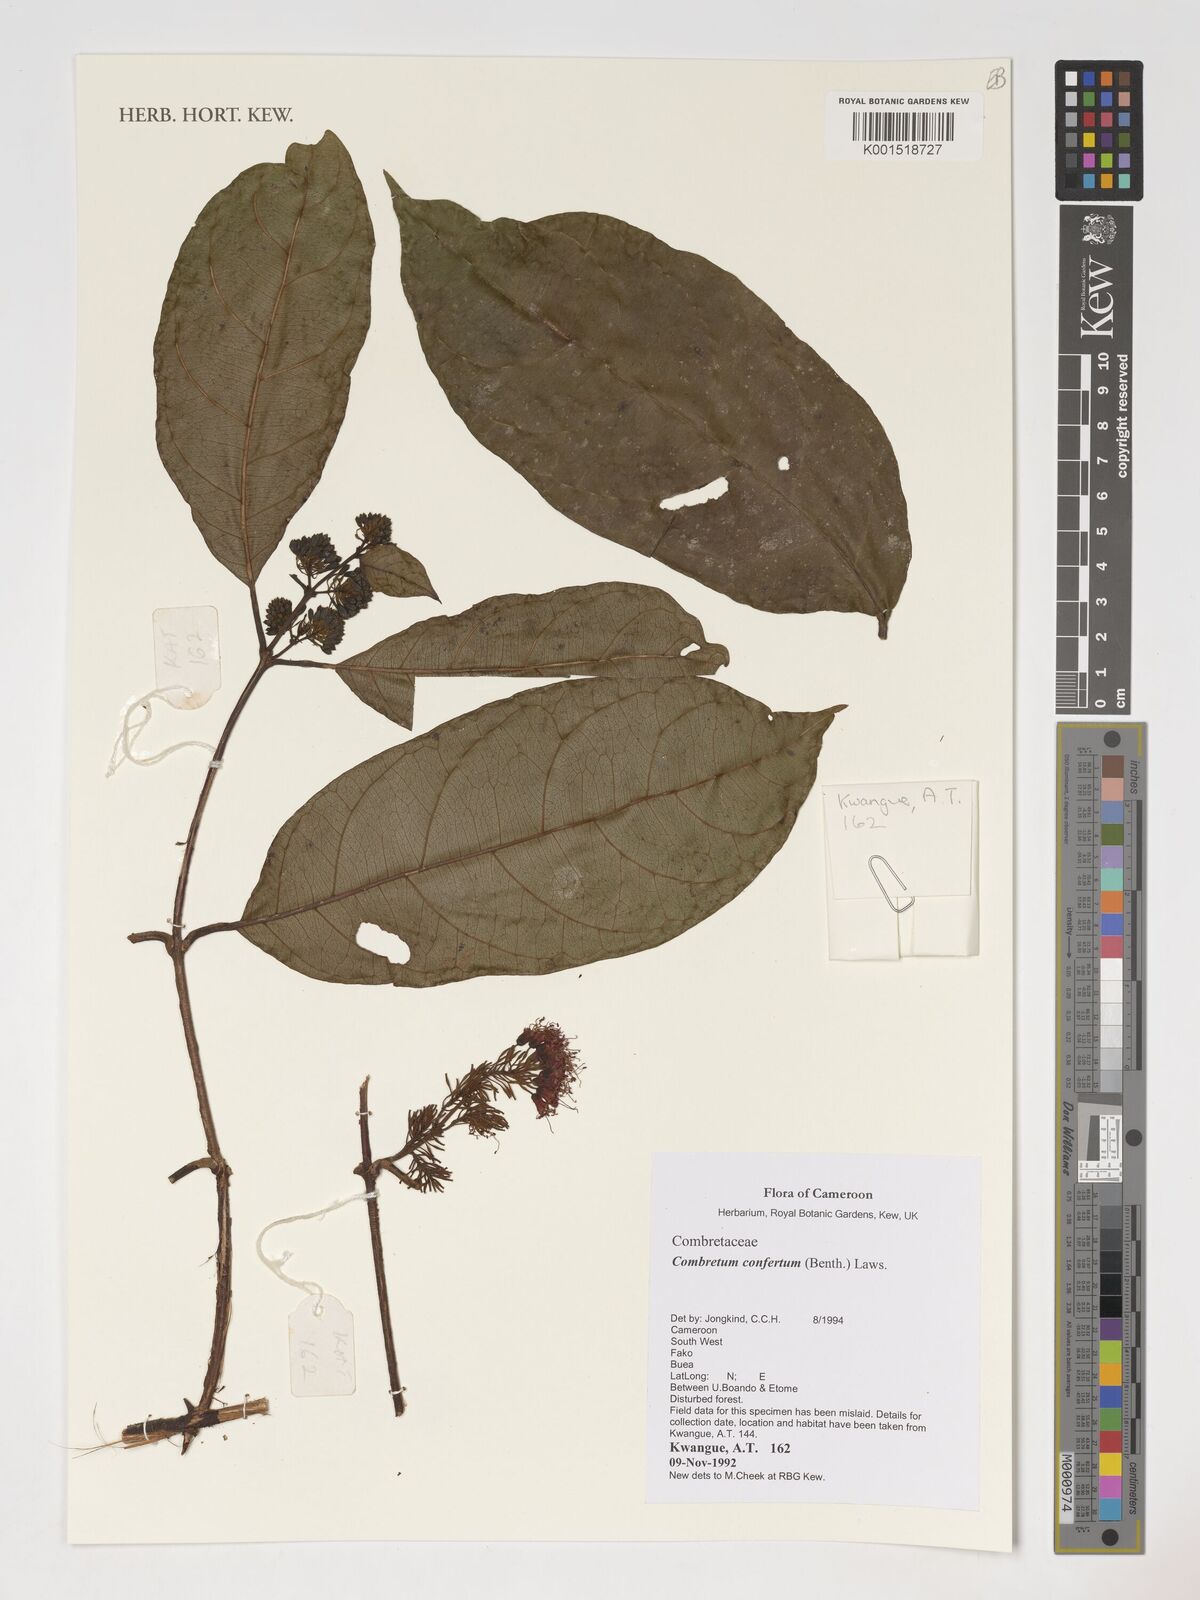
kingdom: Plantae
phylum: Tracheophyta
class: Magnoliopsida
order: Myrtales
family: Combretaceae
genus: Combretum
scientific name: Combretum confertum
